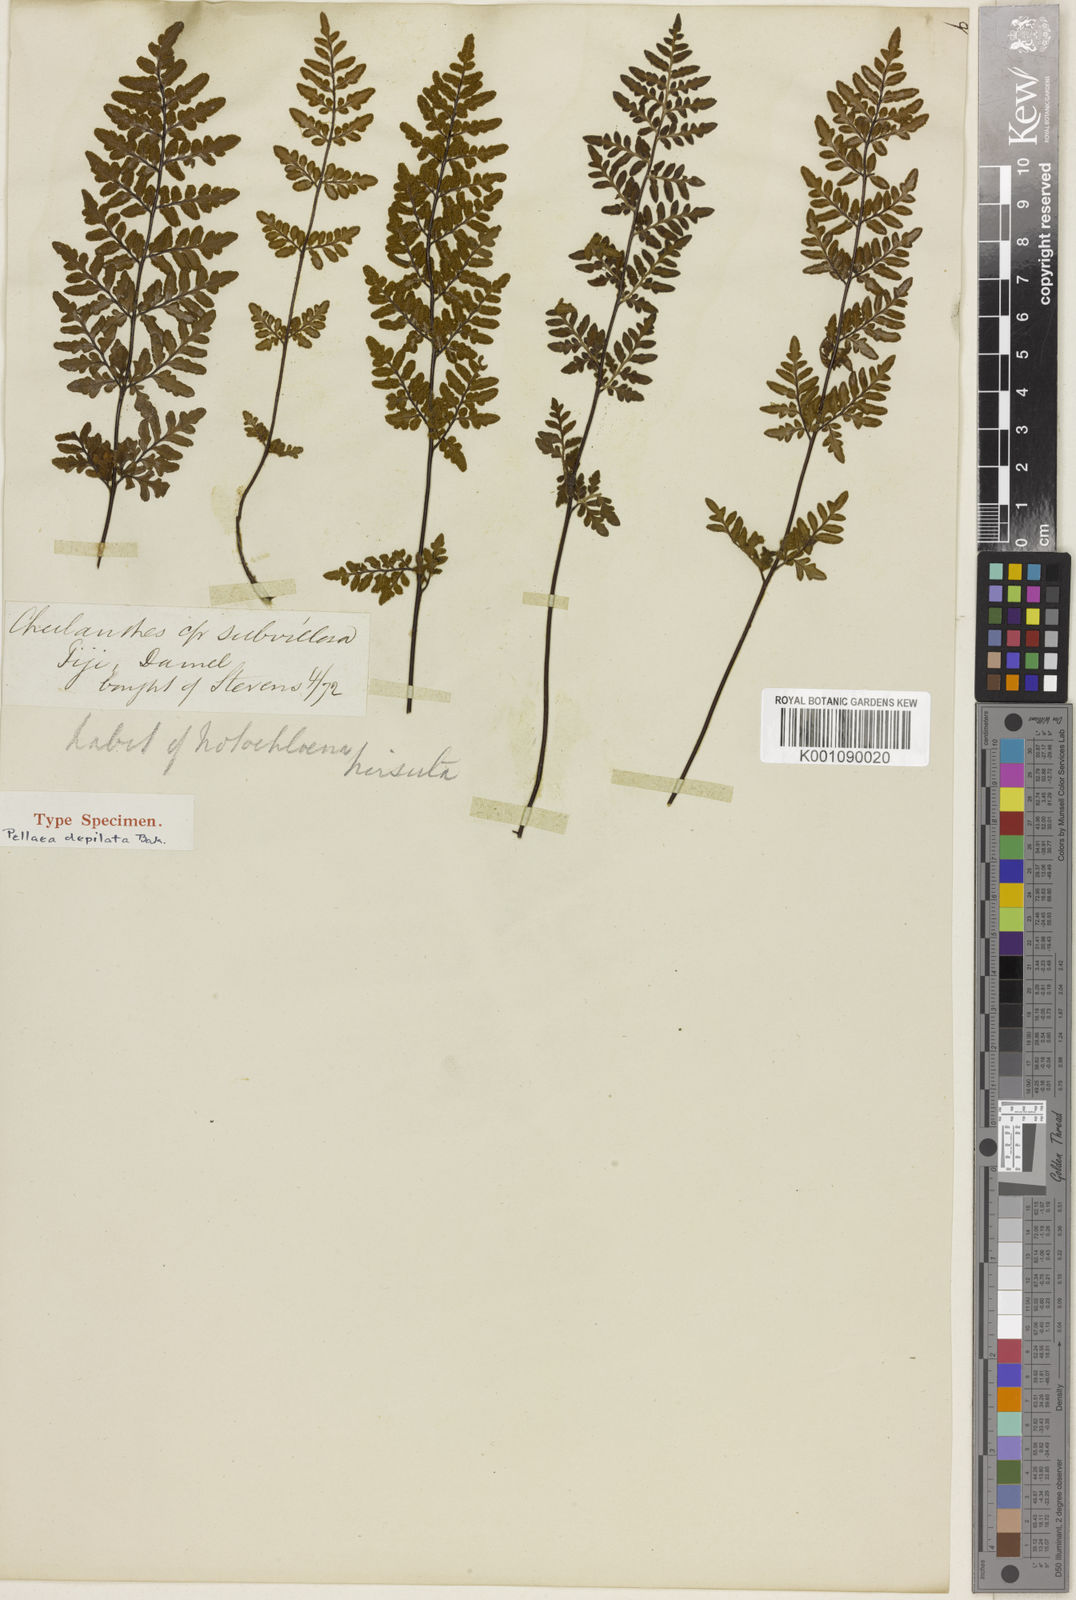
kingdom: Plantae
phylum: Tracheophyta
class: Polypodiopsida
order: Polypodiales
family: Pteridaceae
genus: Cheilanthes
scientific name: Cheilanthes tenuifolia
